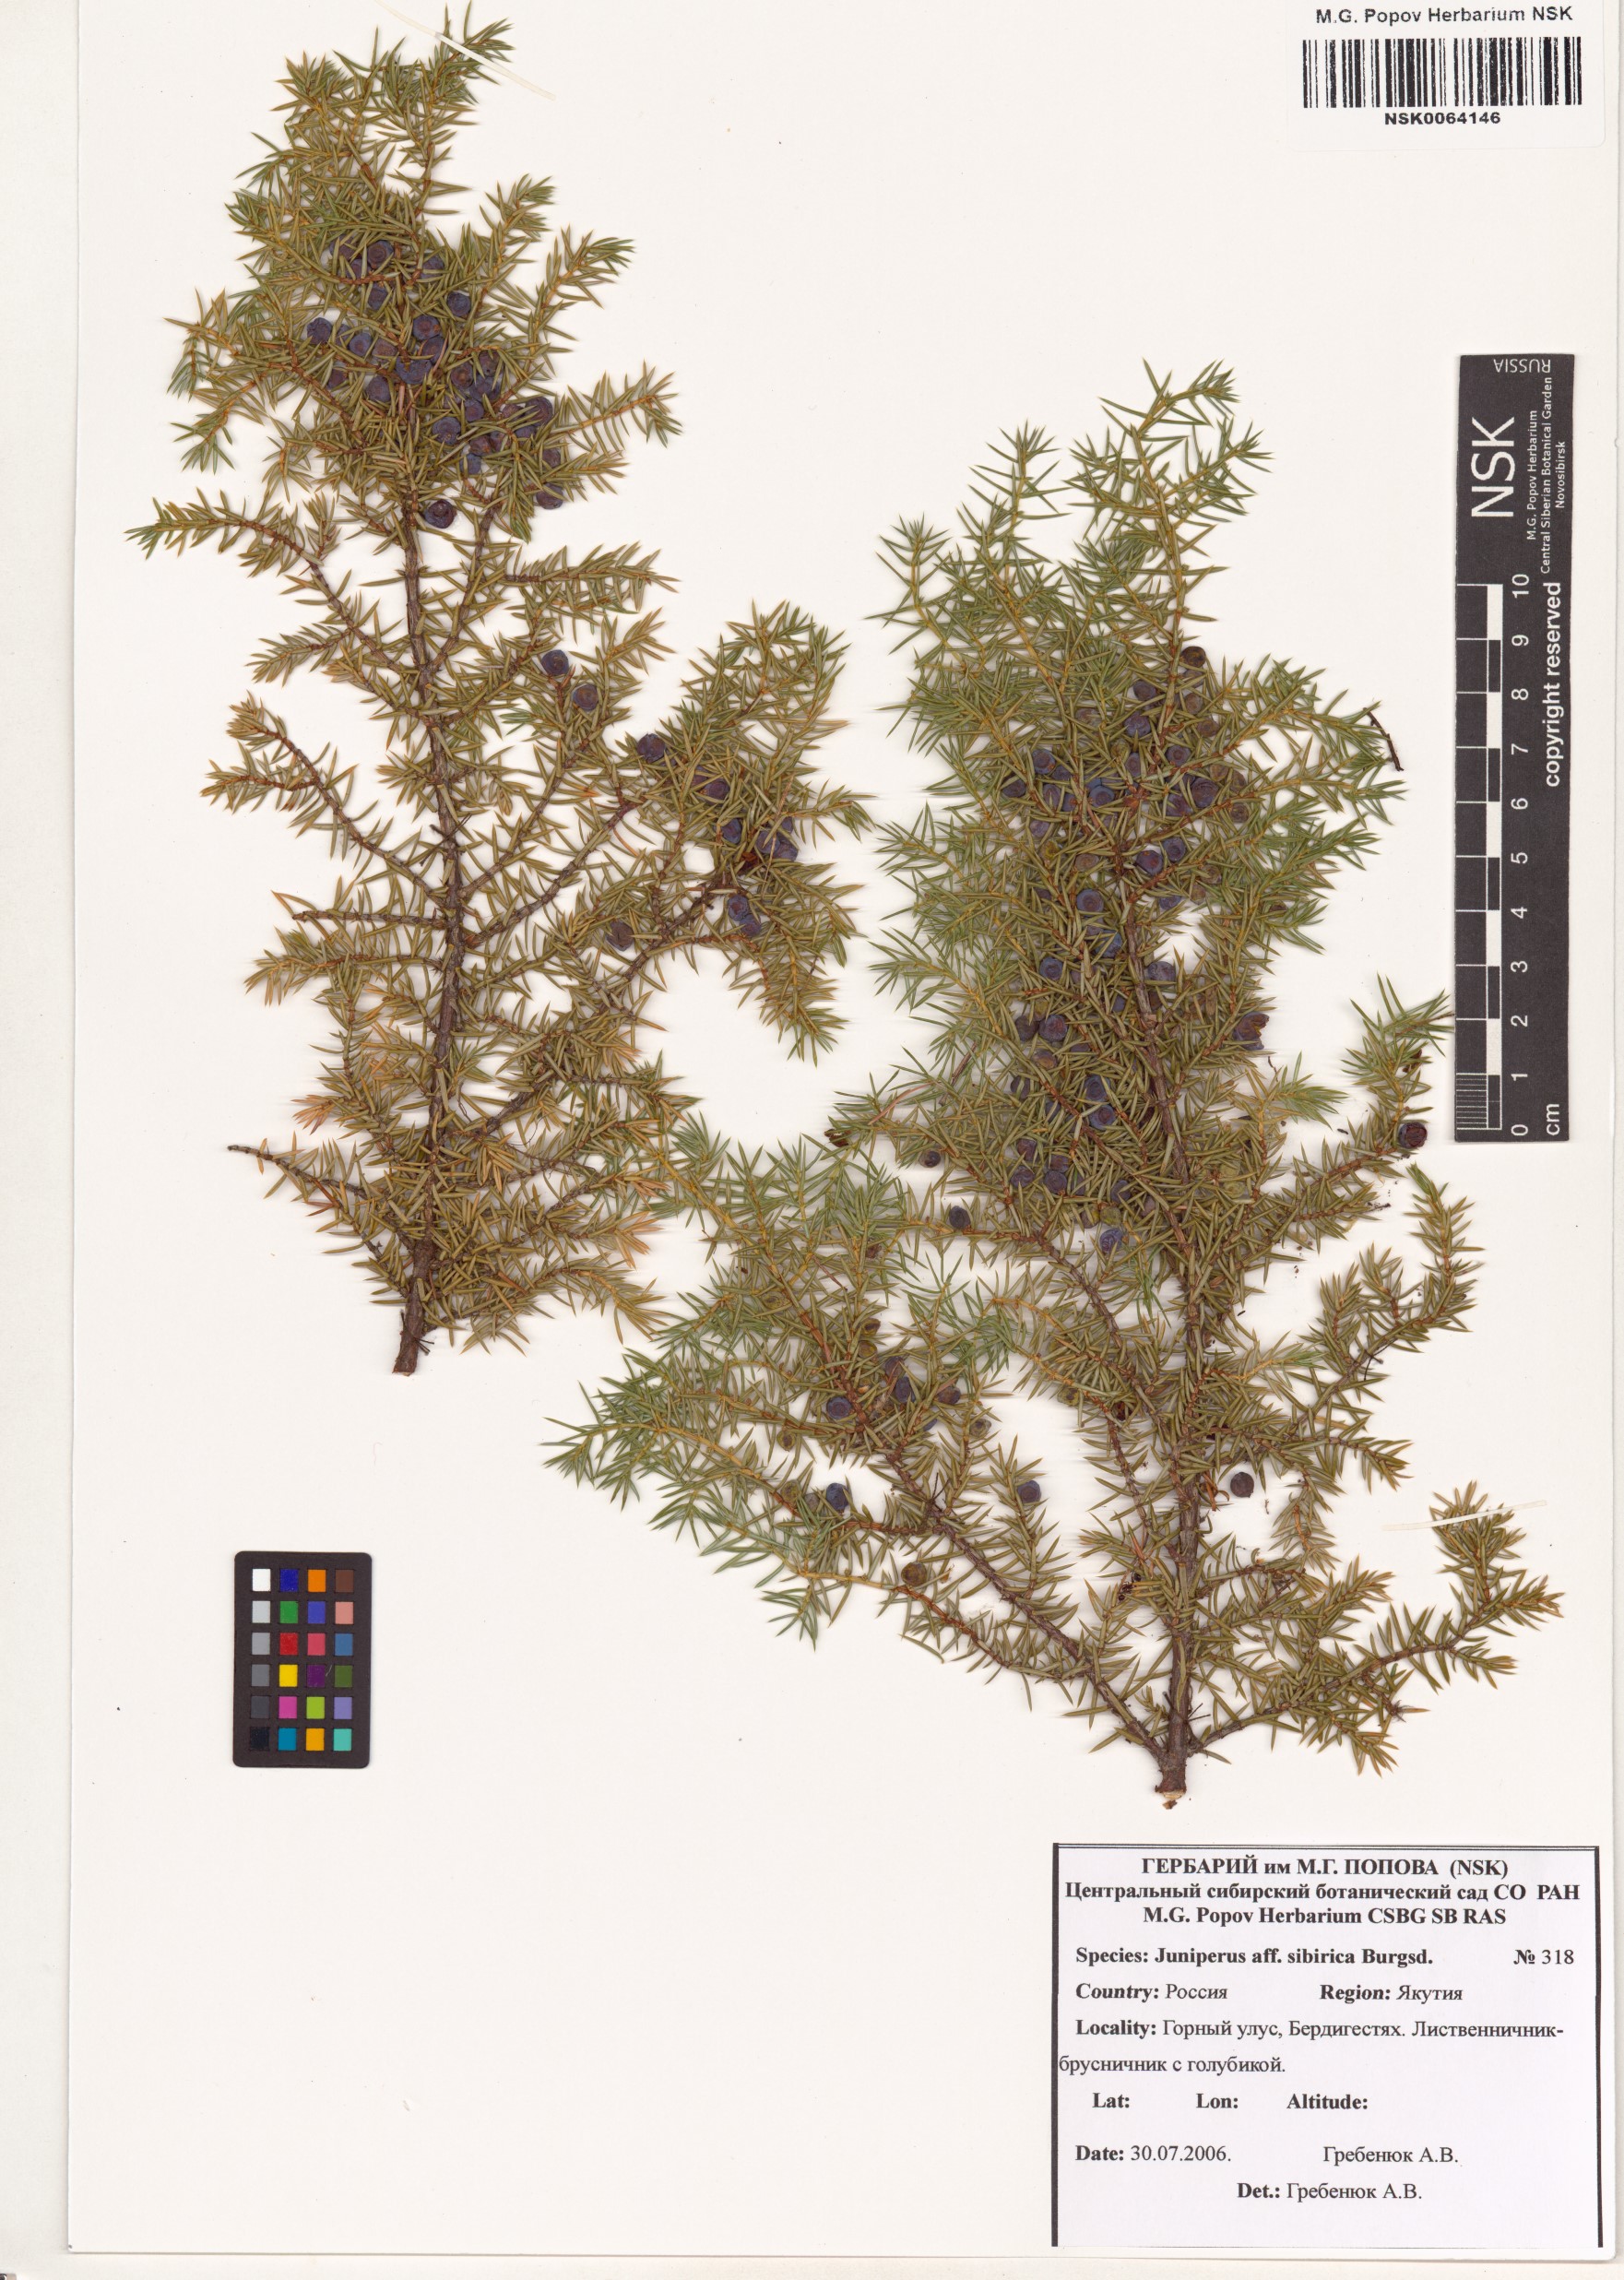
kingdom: Plantae
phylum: Tracheophyta
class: Pinopsida
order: Pinales
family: Cupressaceae
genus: Juniperus
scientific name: Juniperus communis
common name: Common juniper
